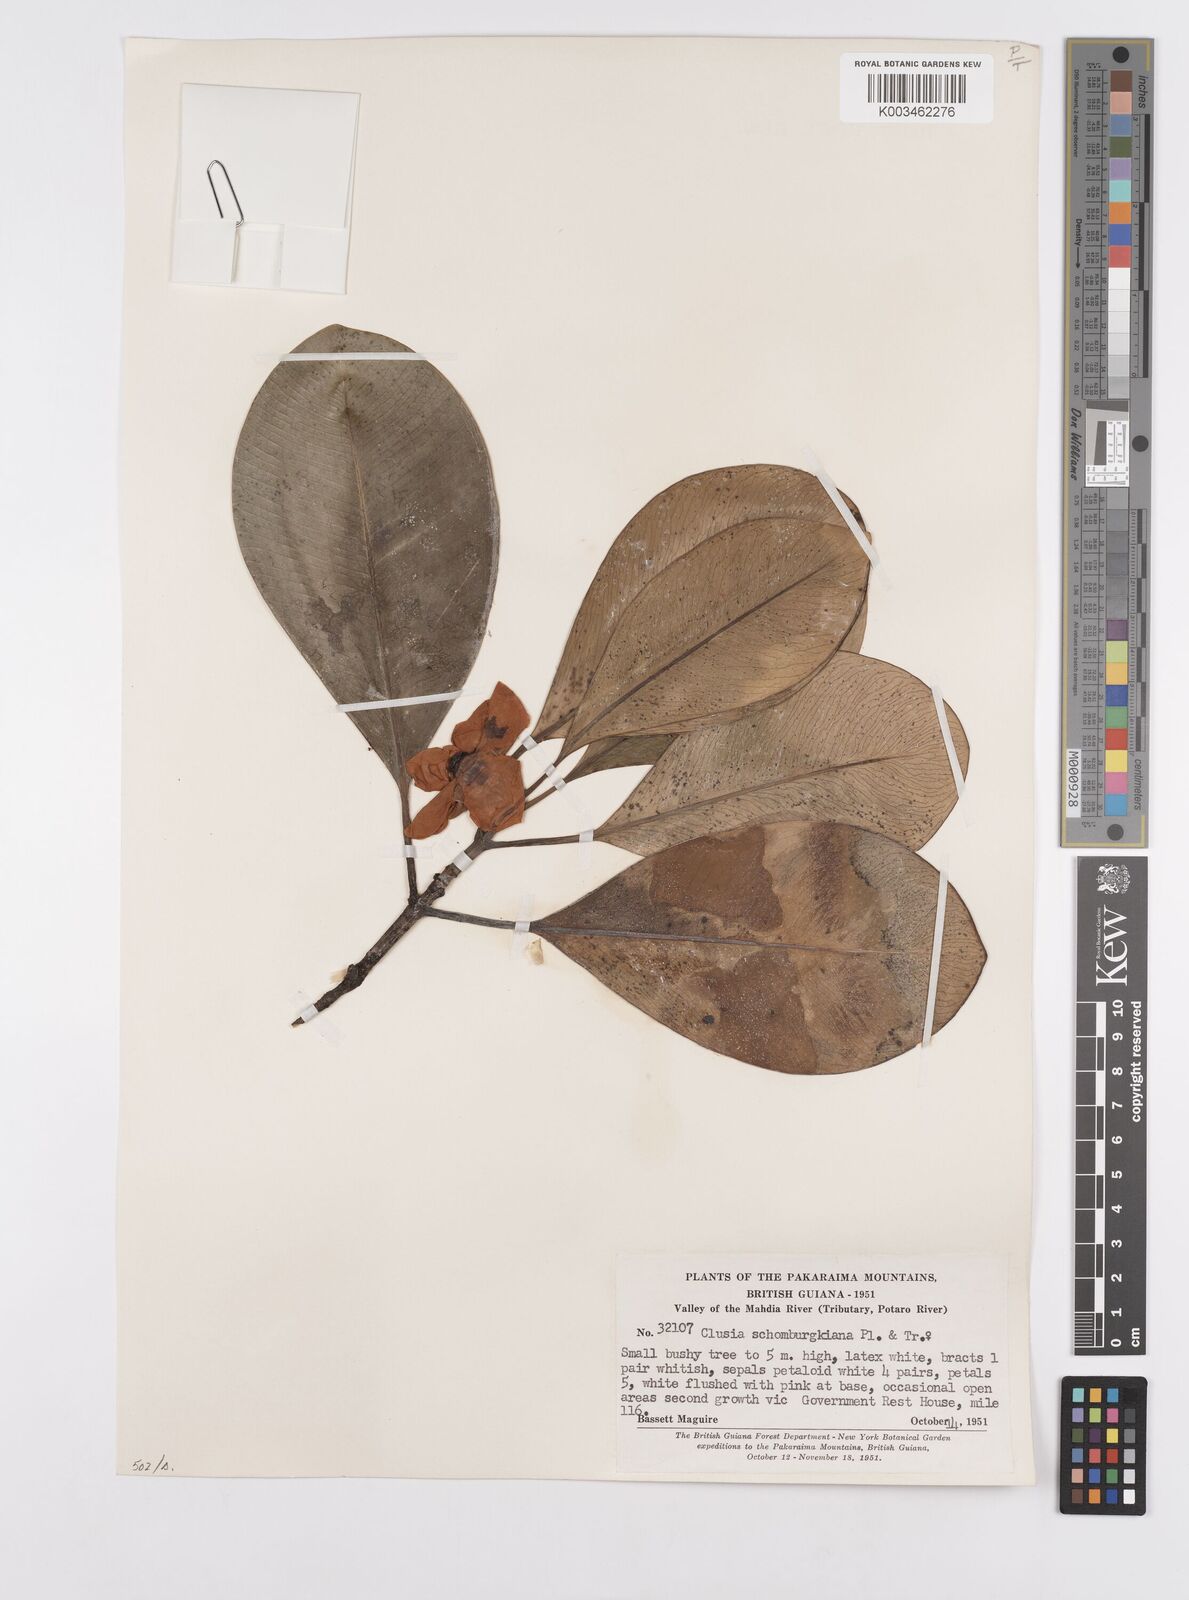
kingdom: Plantae
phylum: Tracheophyta
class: Magnoliopsida
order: Malpighiales
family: Clusiaceae
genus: Clusia
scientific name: Clusia schomburgkiana
